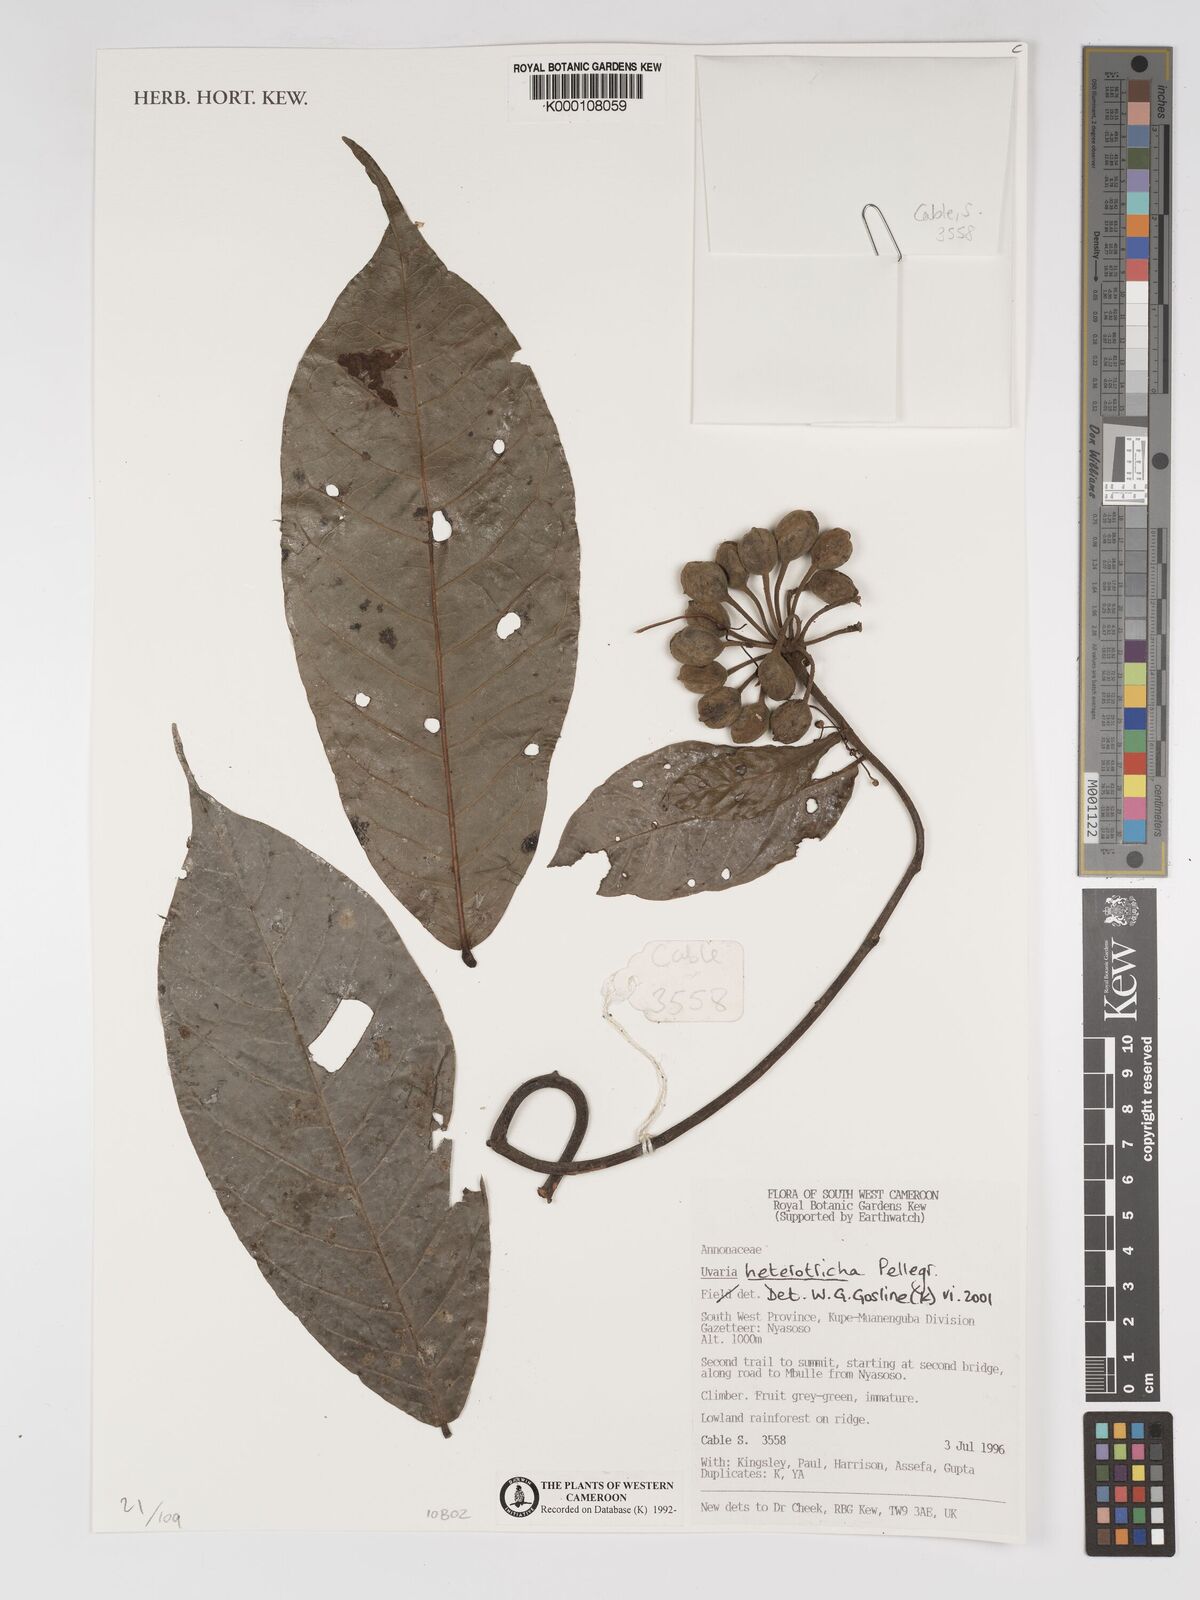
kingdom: Plantae
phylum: Tracheophyta
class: Magnoliopsida
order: Magnoliales
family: Annonaceae
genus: Uvaria
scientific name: Uvaria heterotricha
